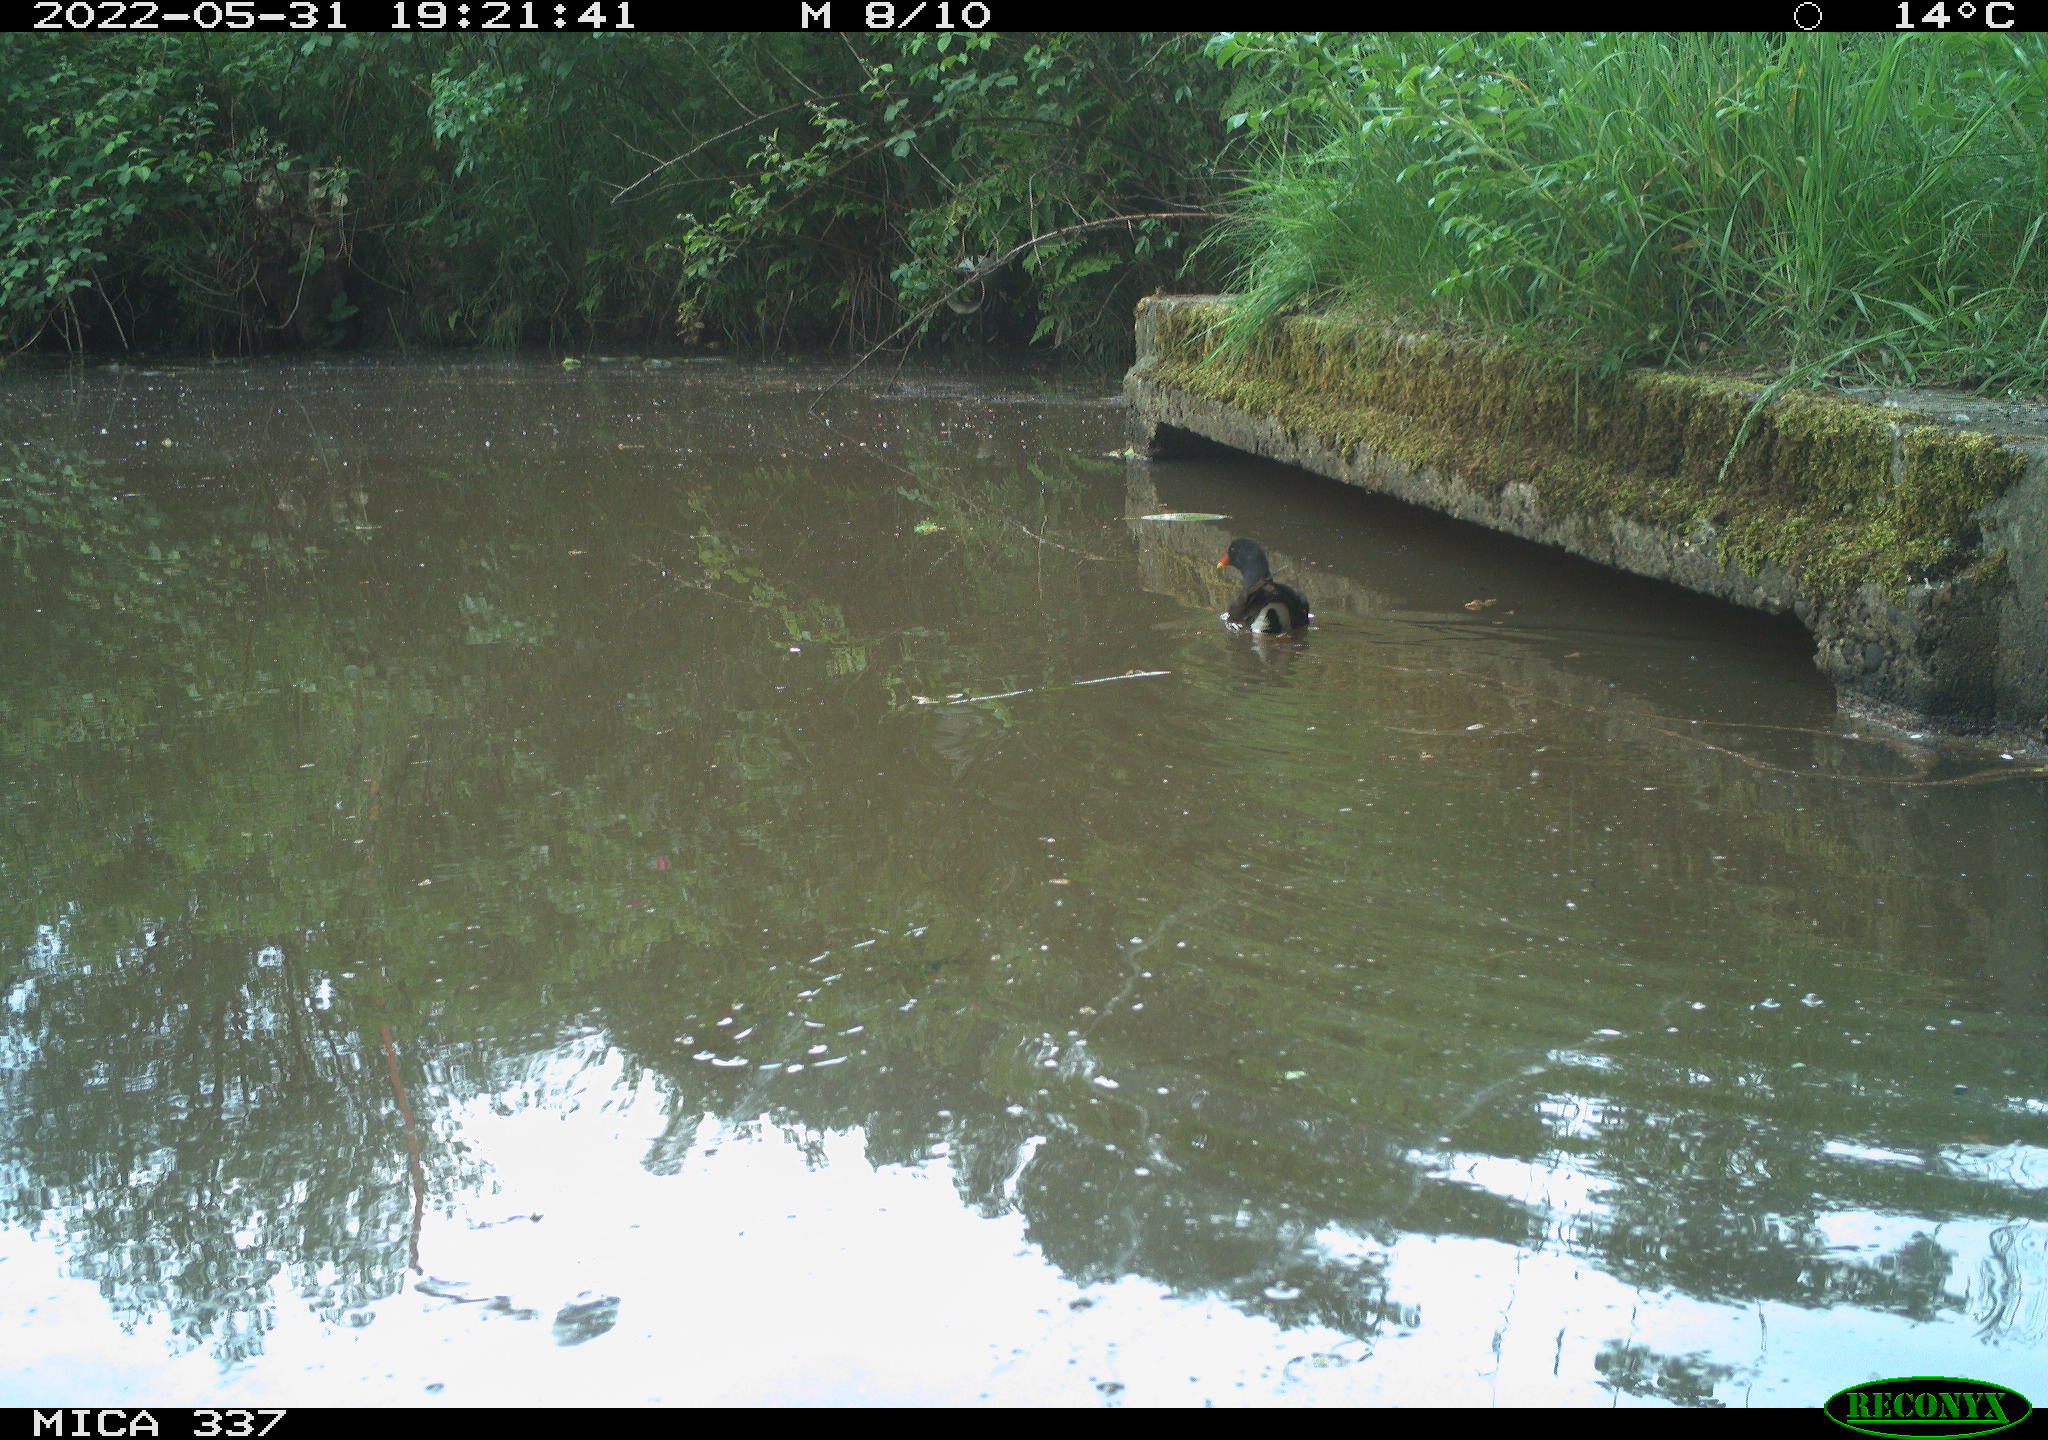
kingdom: Animalia
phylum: Chordata
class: Aves
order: Gruiformes
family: Rallidae
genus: Gallinula
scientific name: Gallinula chloropus
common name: Common moorhen
